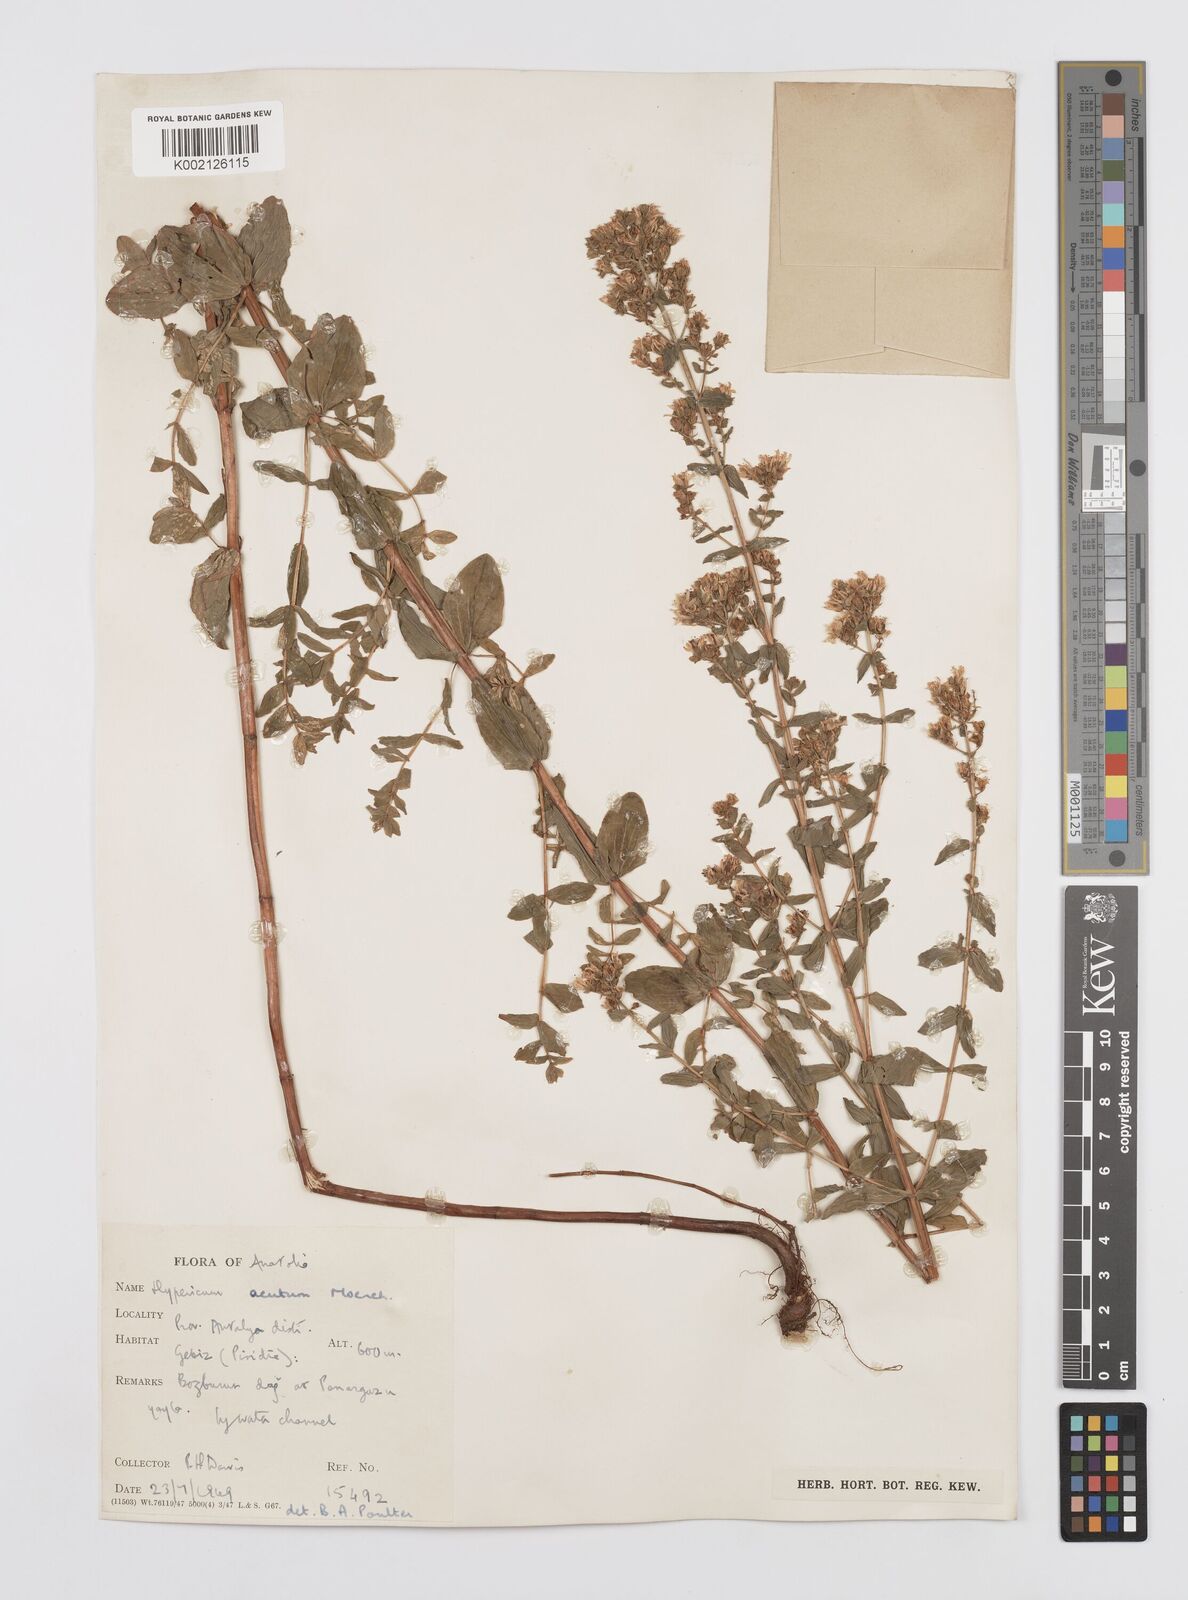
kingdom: Plantae
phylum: Tracheophyta
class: Magnoliopsida
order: Malpighiales
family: Hypericaceae
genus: Hypericum
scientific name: Hypericum tetrapterum
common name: Square-stalked st. john's-wort
